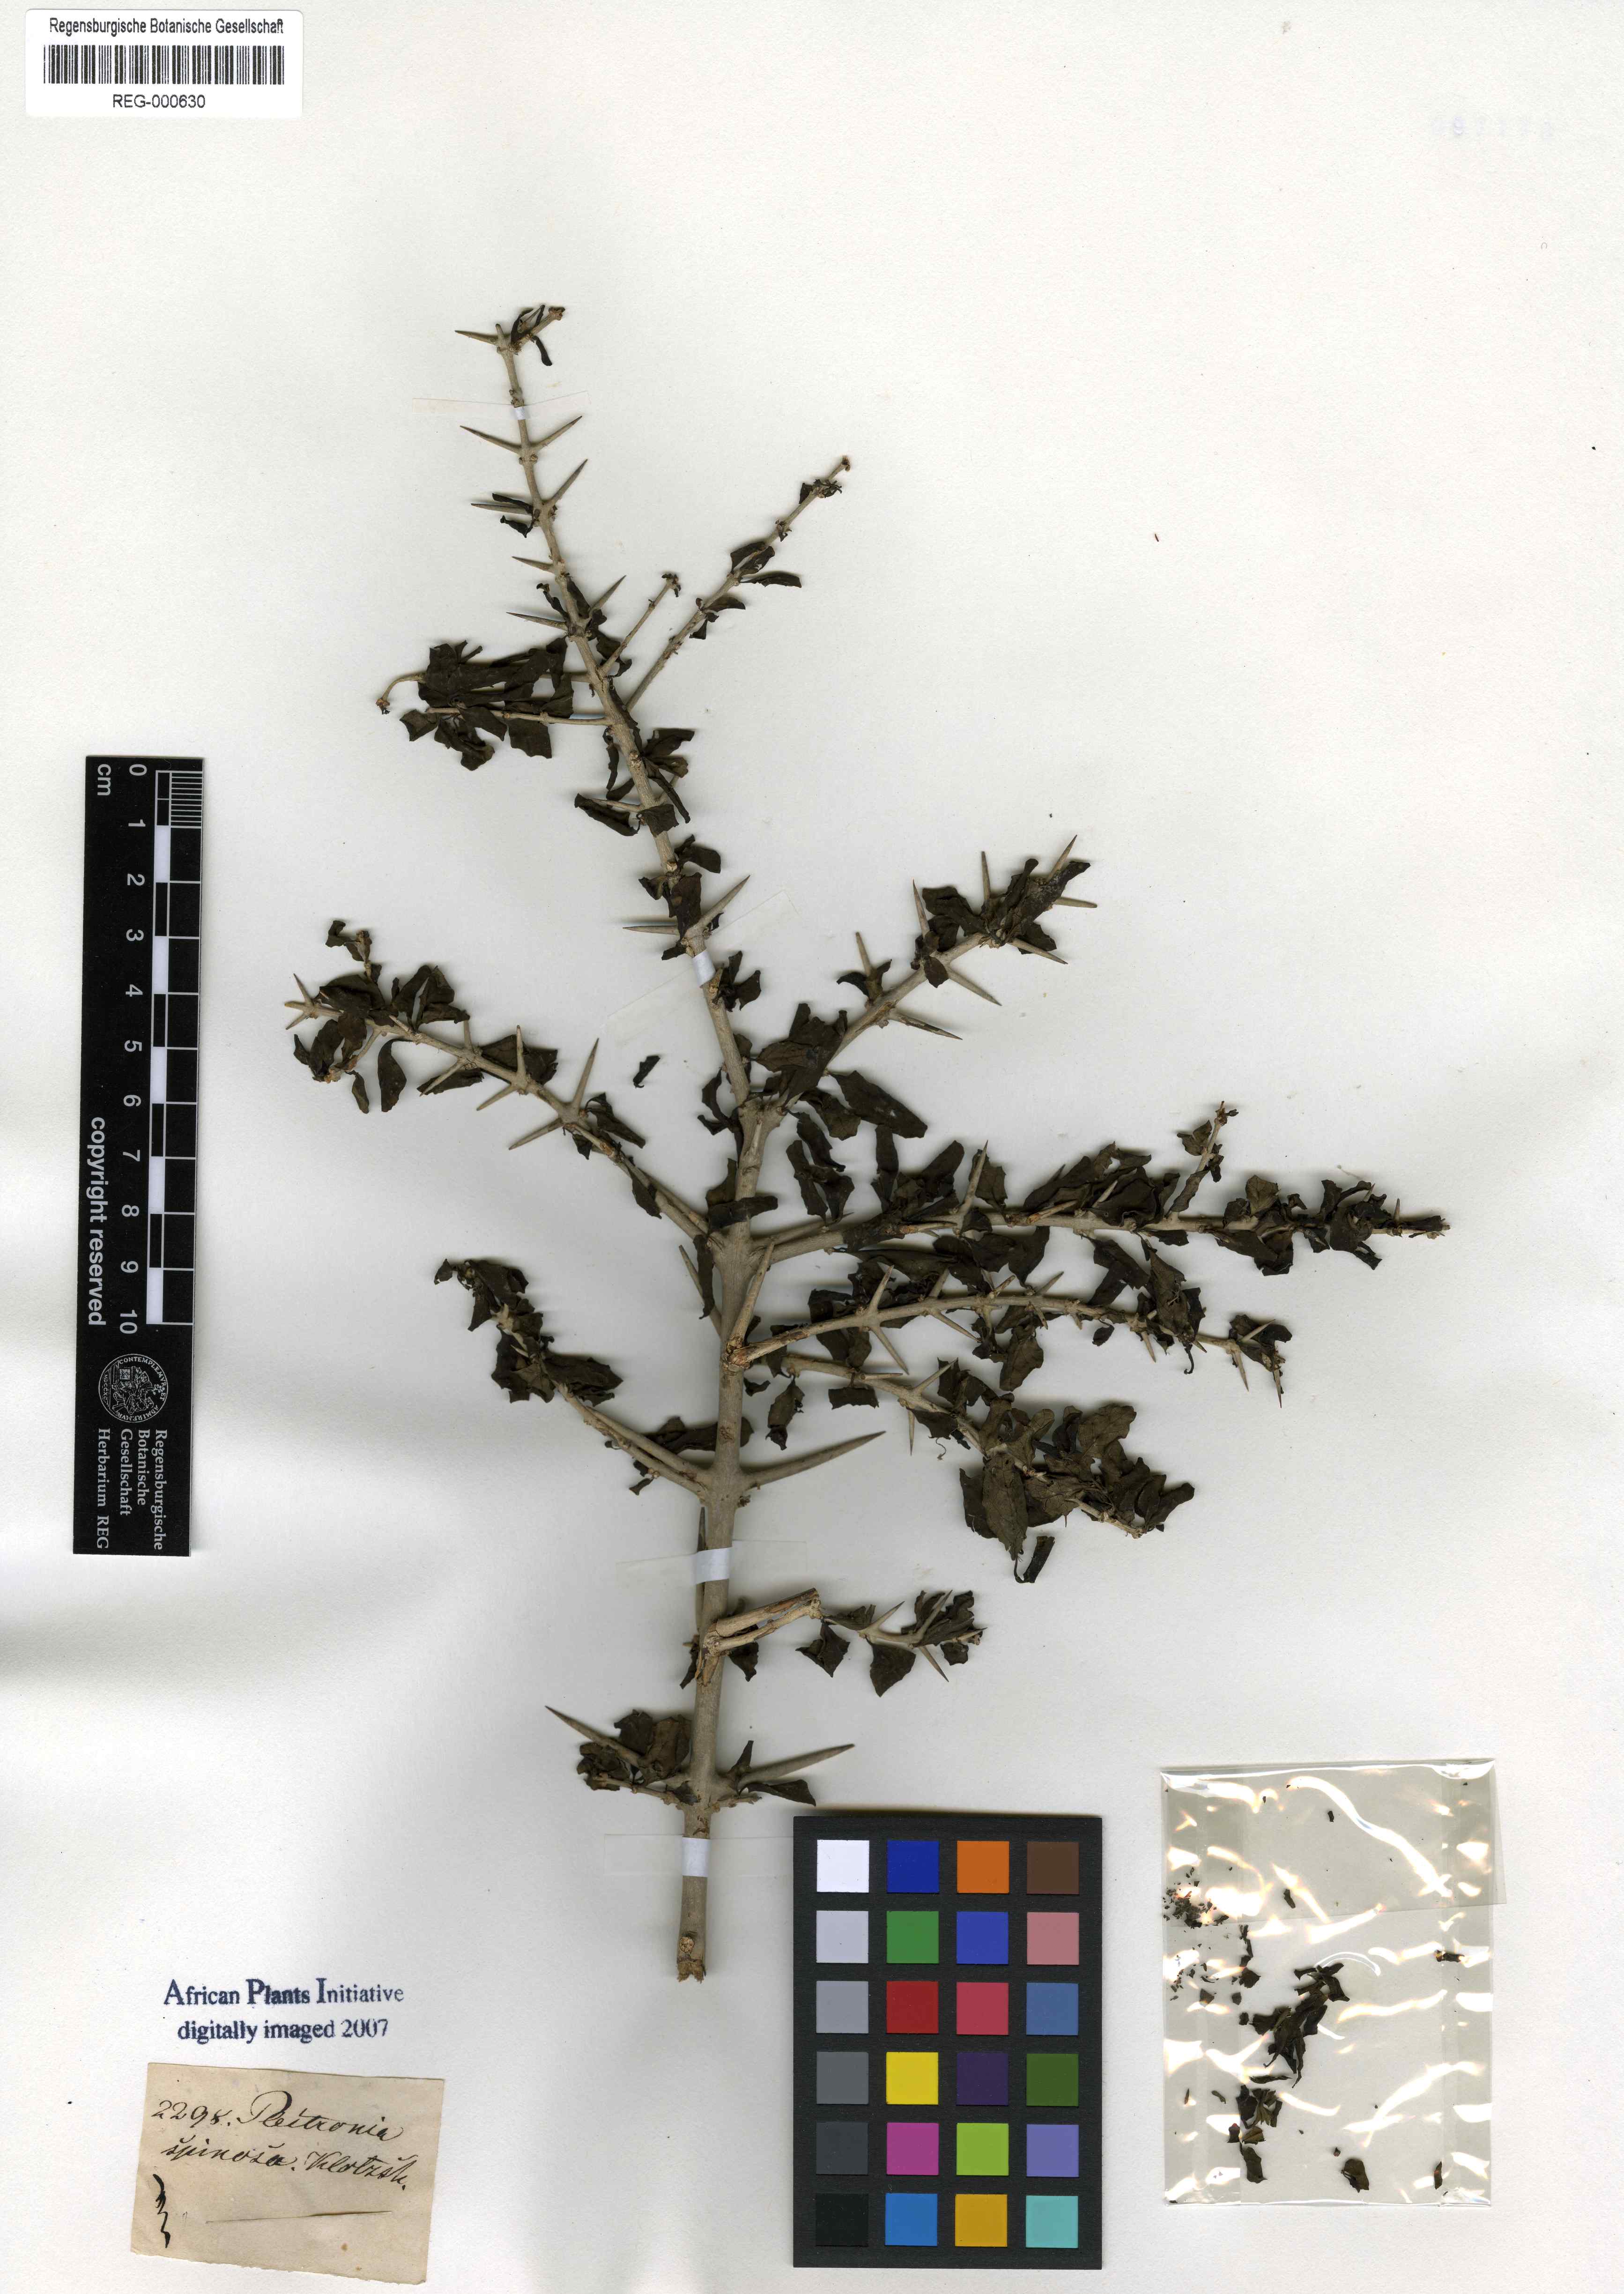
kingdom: Plantae
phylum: Tracheophyta
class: Magnoliopsida
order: Gentianales
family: Rubiaceae
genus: Canthium
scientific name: Canthium spinosum
